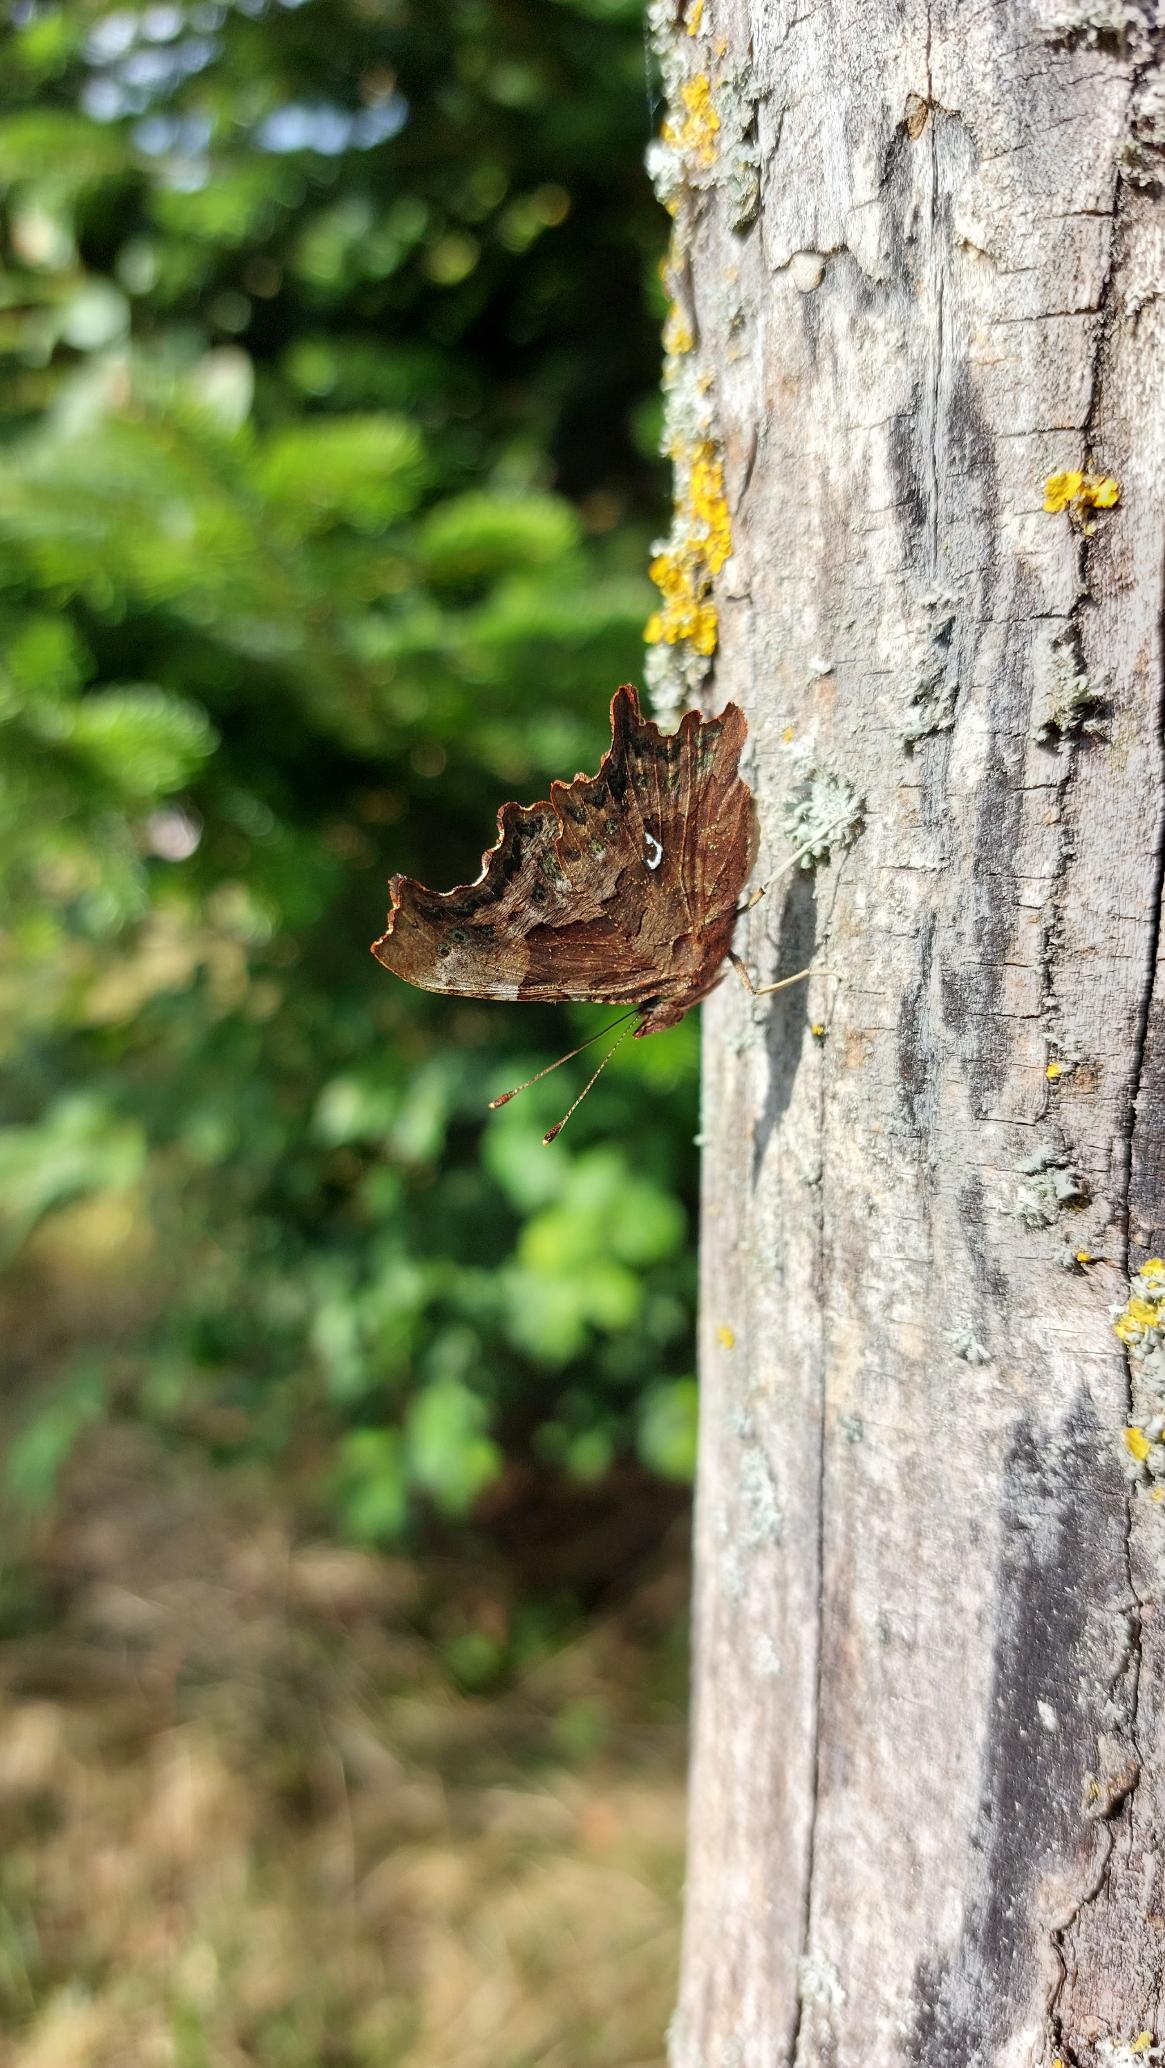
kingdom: Animalia
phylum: Arthropoda
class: Insecta
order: Lepidoptera
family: Nymphalidae
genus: Polygonia
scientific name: Polygonia c-album
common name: Det hvide C
